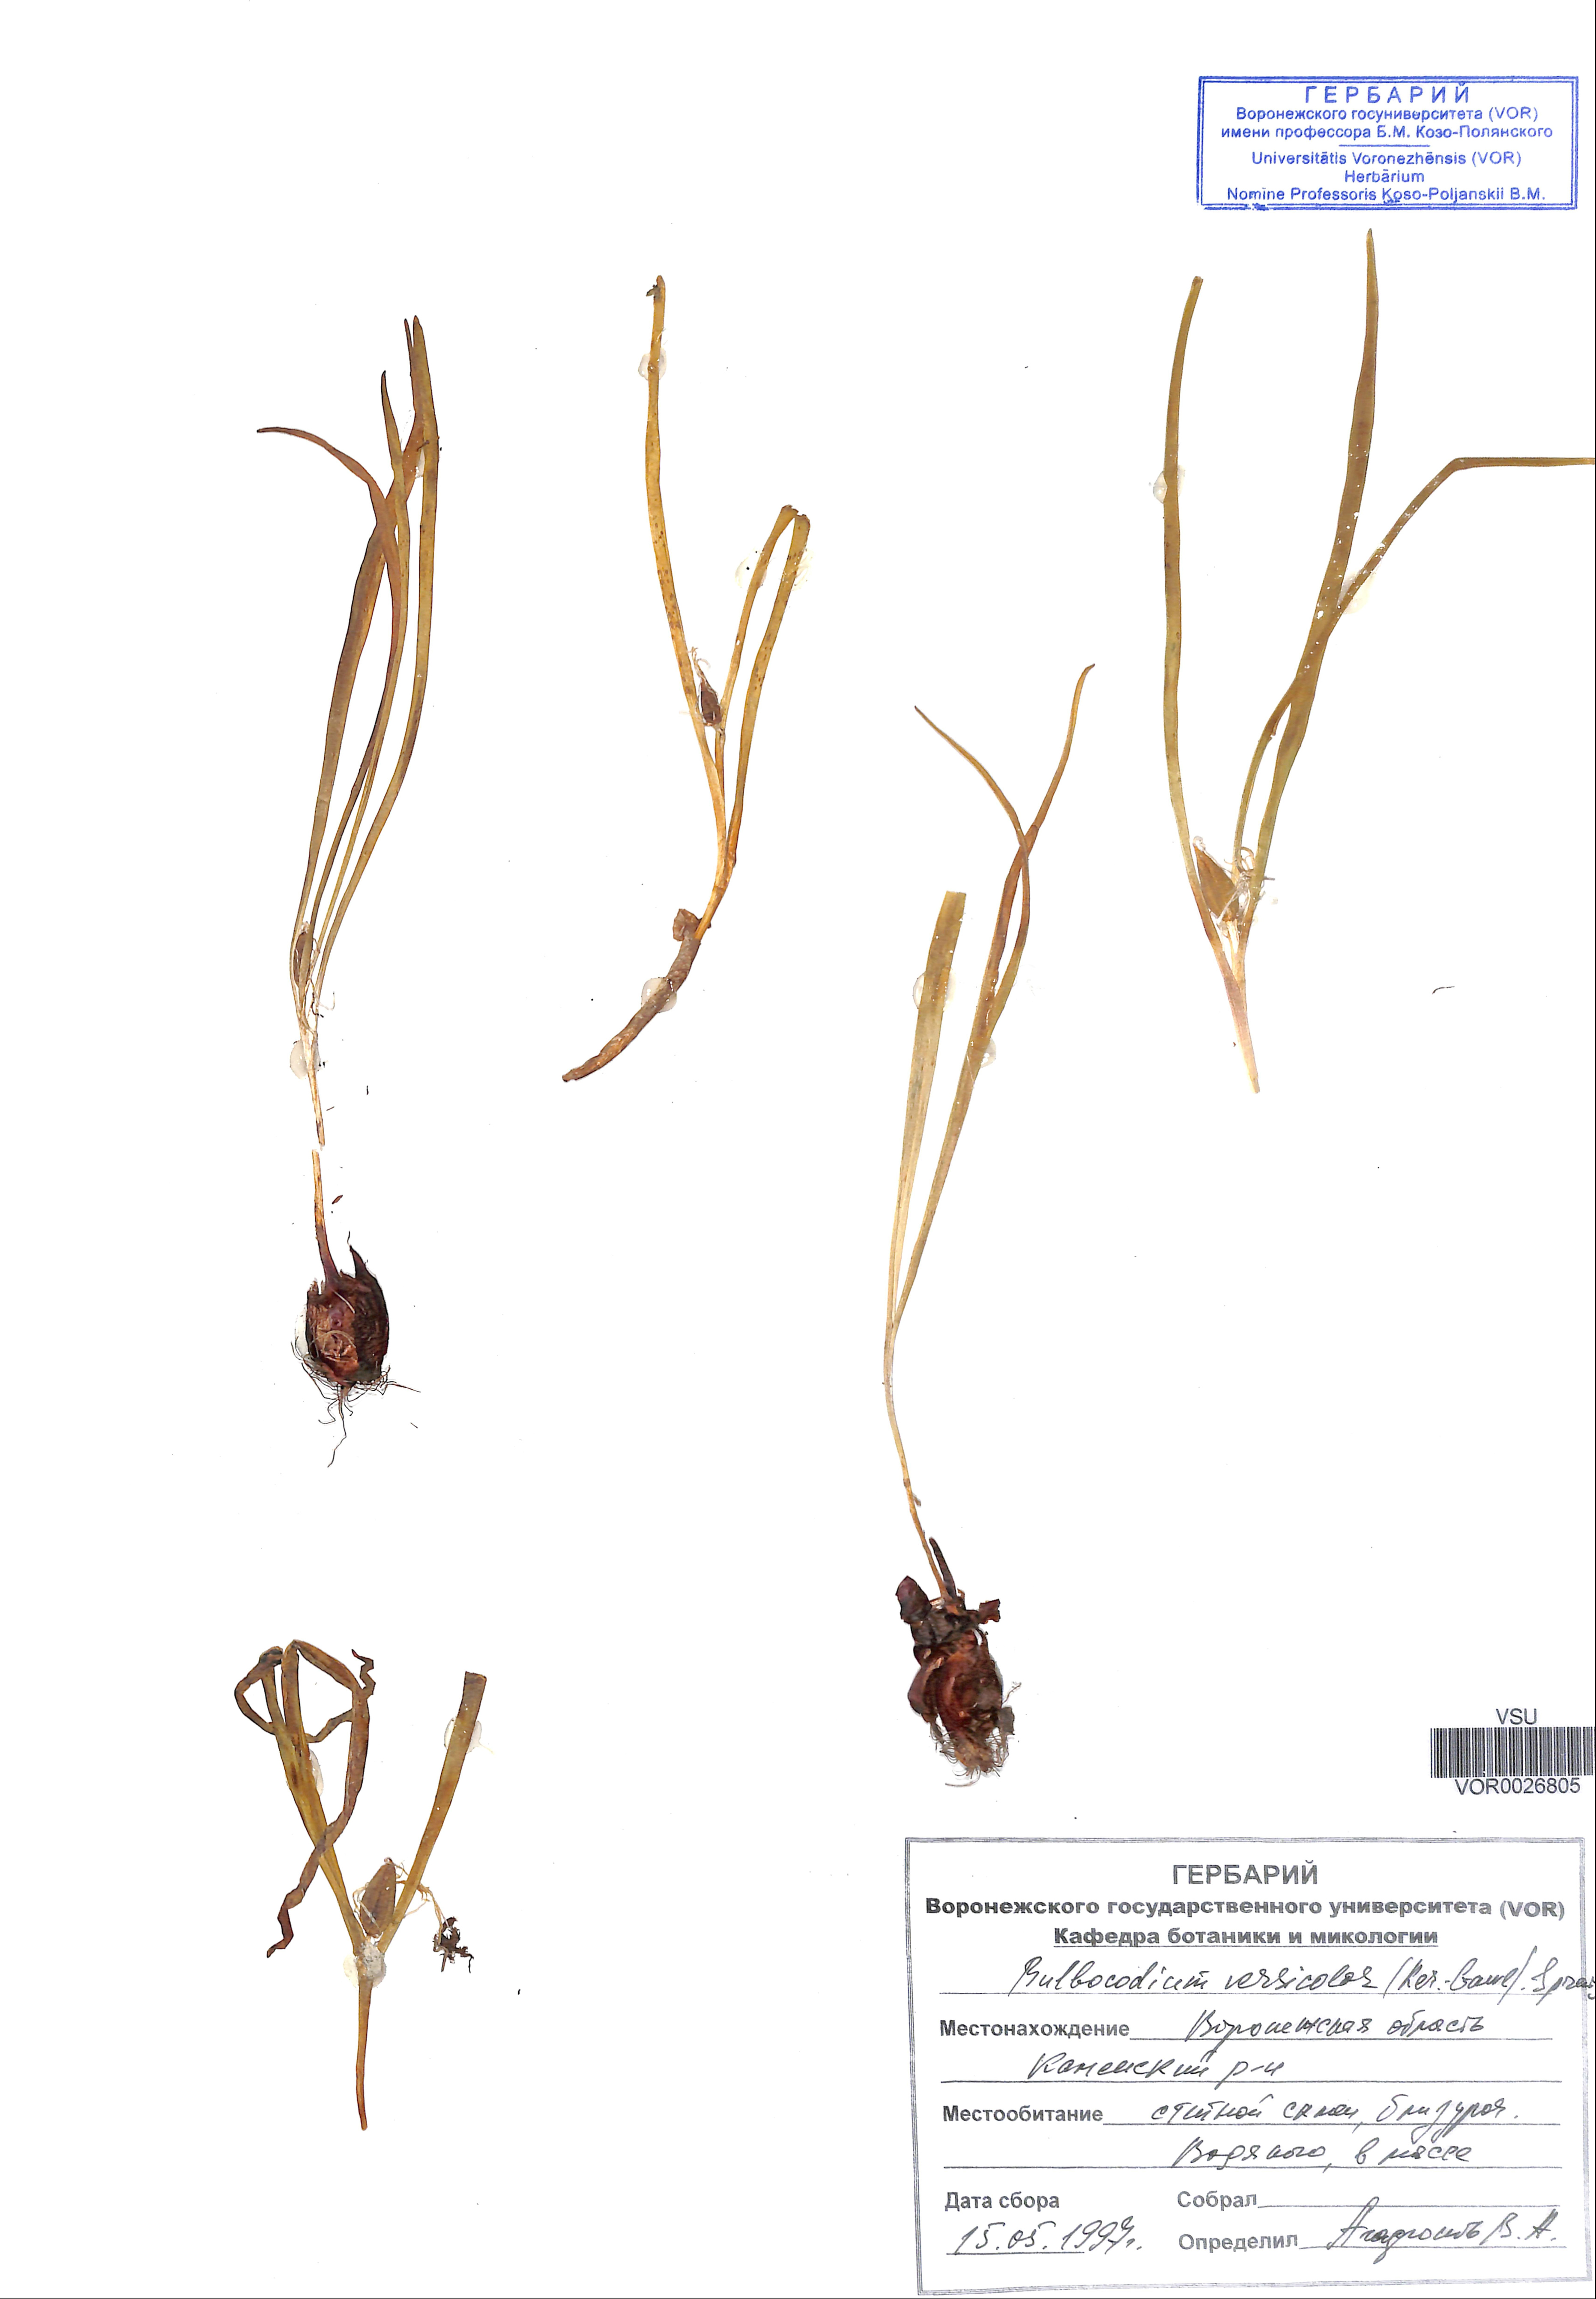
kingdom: Plantae
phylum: Tracheophyta
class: Liliopsida
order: Liliales
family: Colchicaceae
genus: Colchicum
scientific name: Colchicum bulbocodium
